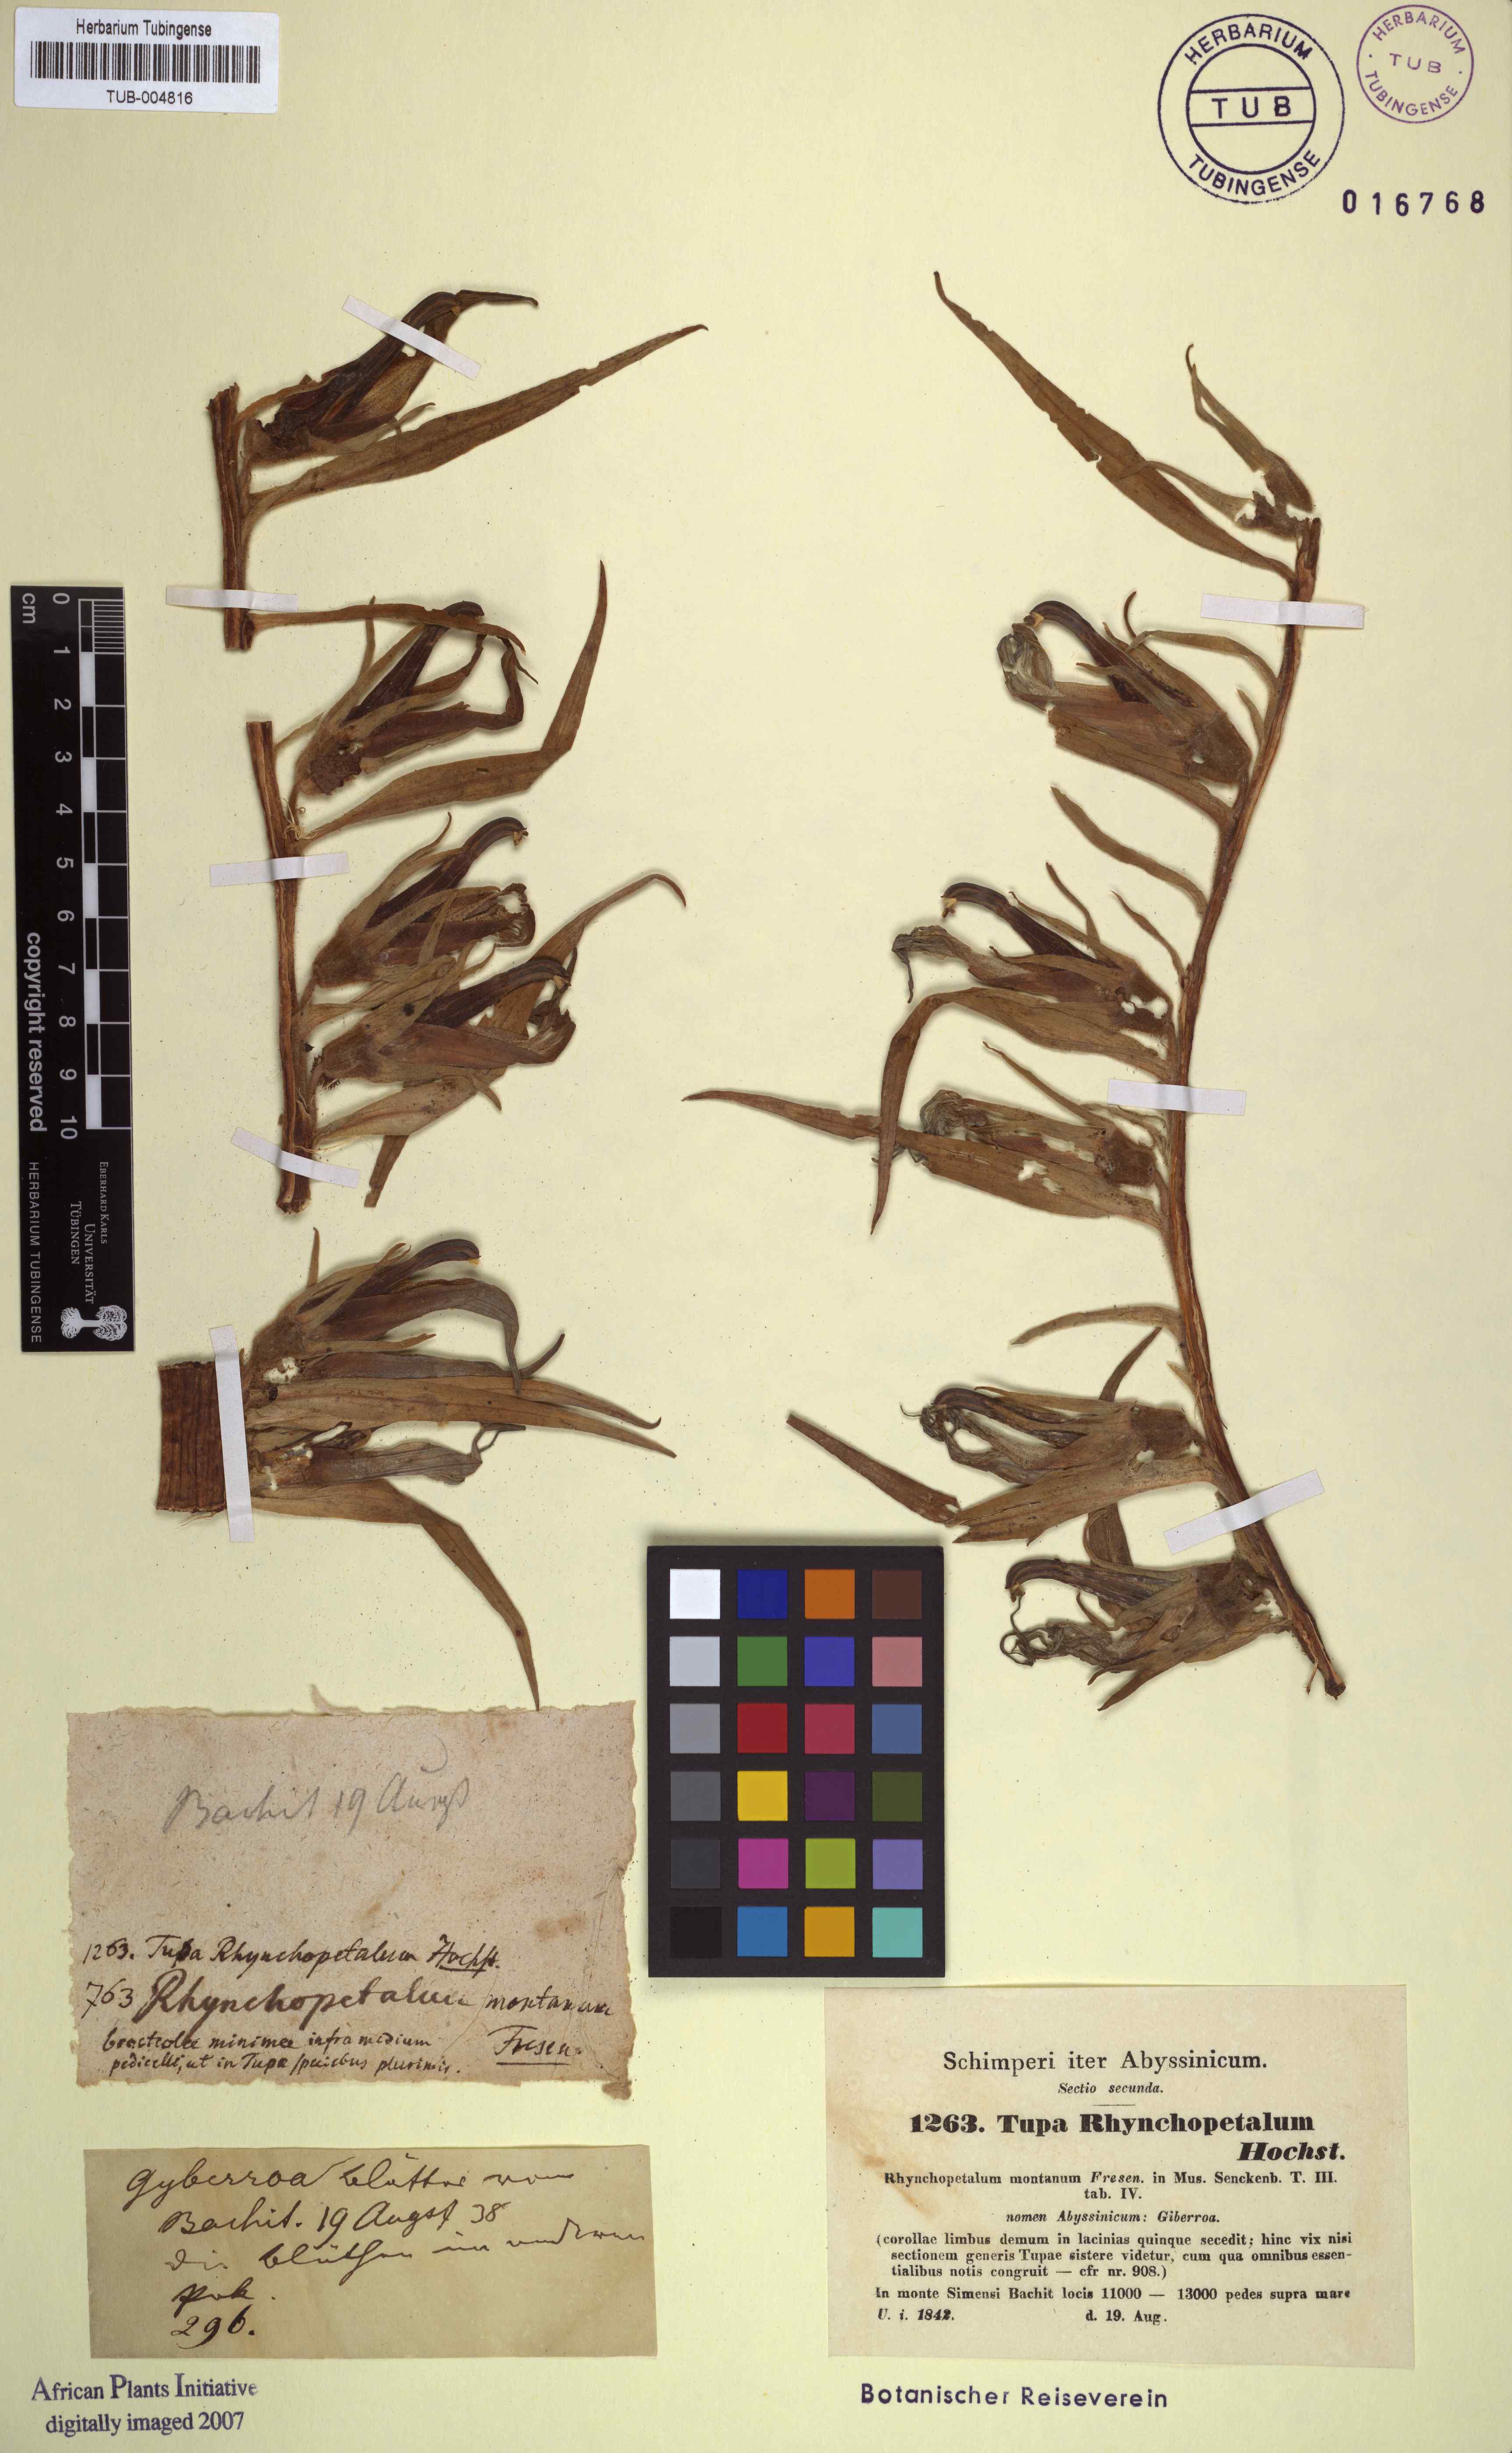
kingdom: Plantae
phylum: Tracheophyta
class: Magnoliopsida
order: Asterales
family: Campanulaceae
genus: Lobelia
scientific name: Lobelia rhynchopetalum
